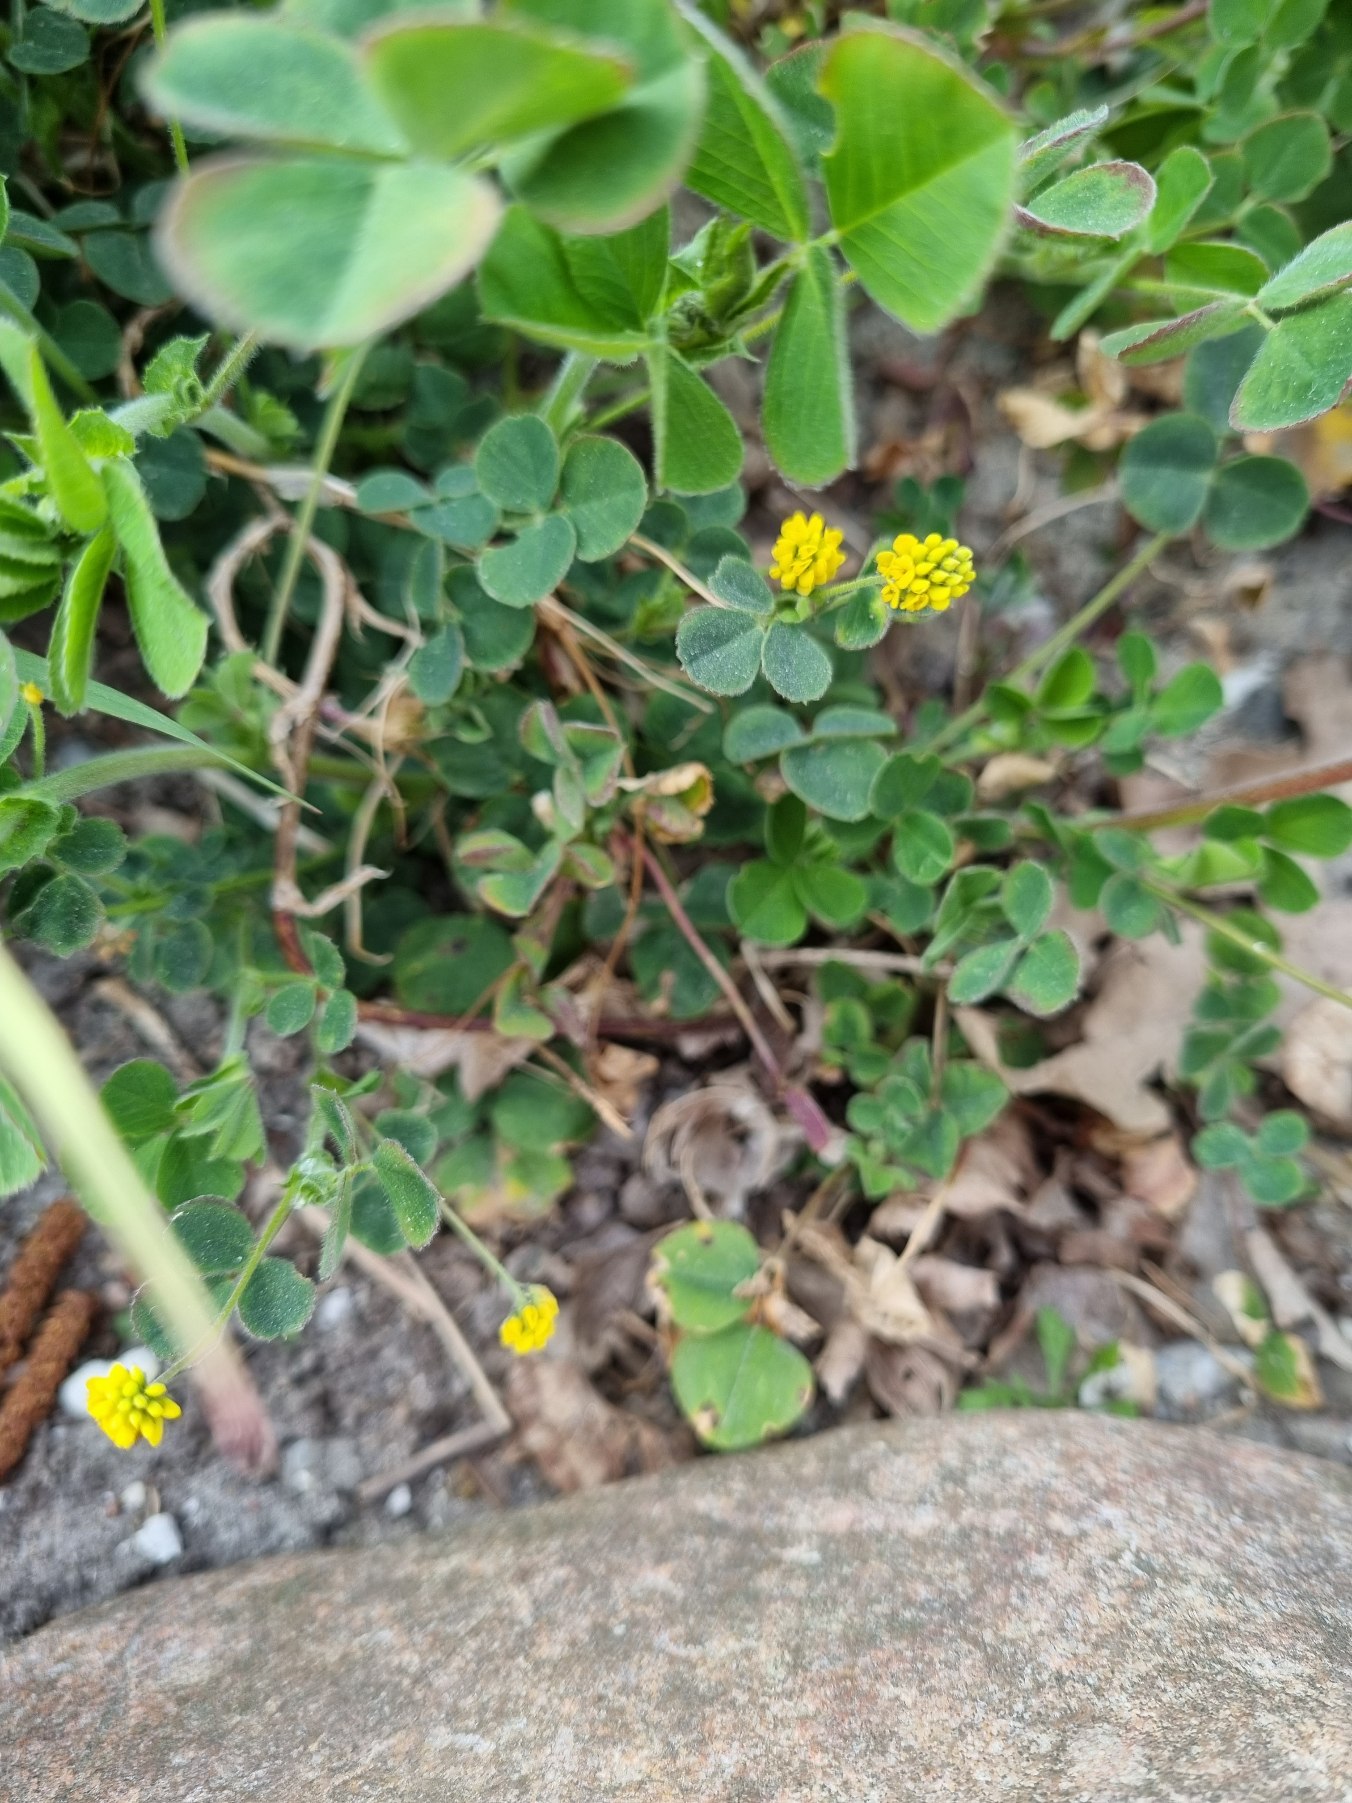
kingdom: Plantae
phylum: Tracheophyta
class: Magnoliopsida
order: Fabales
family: Fabaceae
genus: Medicago
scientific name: Medicago lupulina
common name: Humle-sneglebælg
